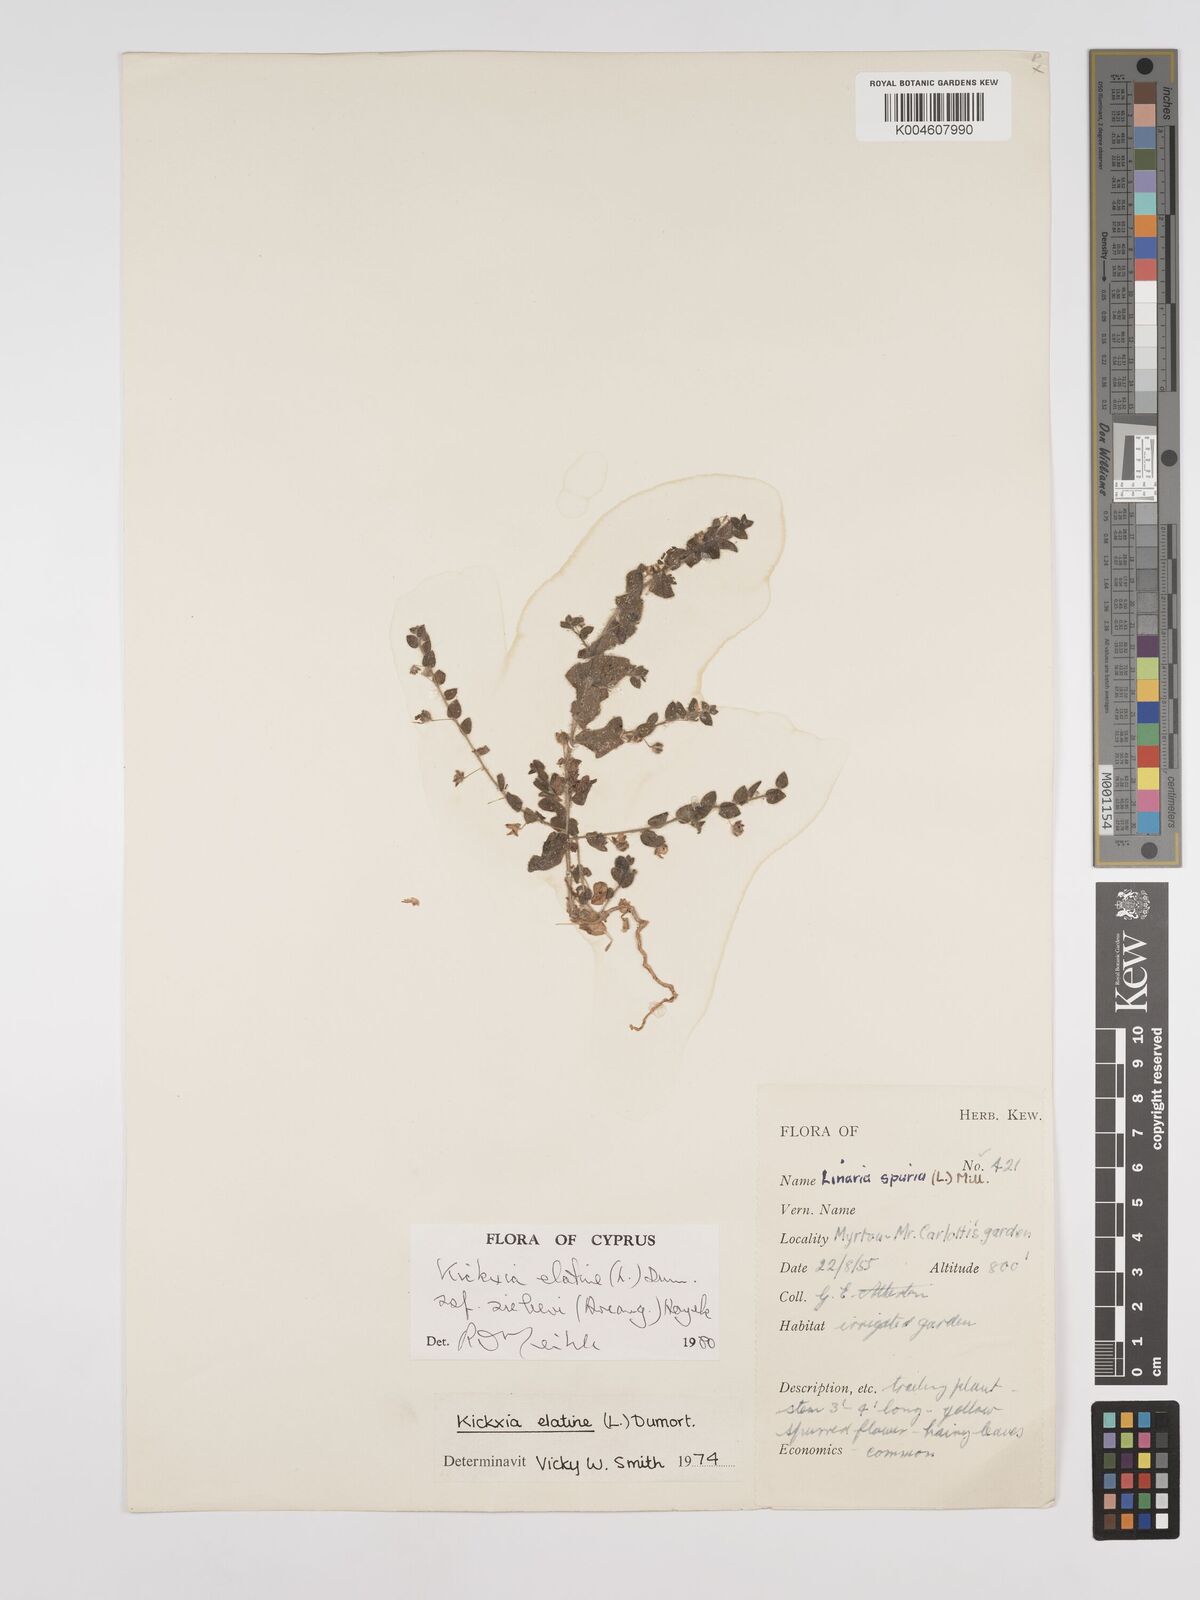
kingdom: Plantae
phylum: Tracheophyta
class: Magnoliopsida
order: Lamiales
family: Plantaginaceae
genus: Kickxia
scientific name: Kickxia elatine
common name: Sharp-leaved fluellen
